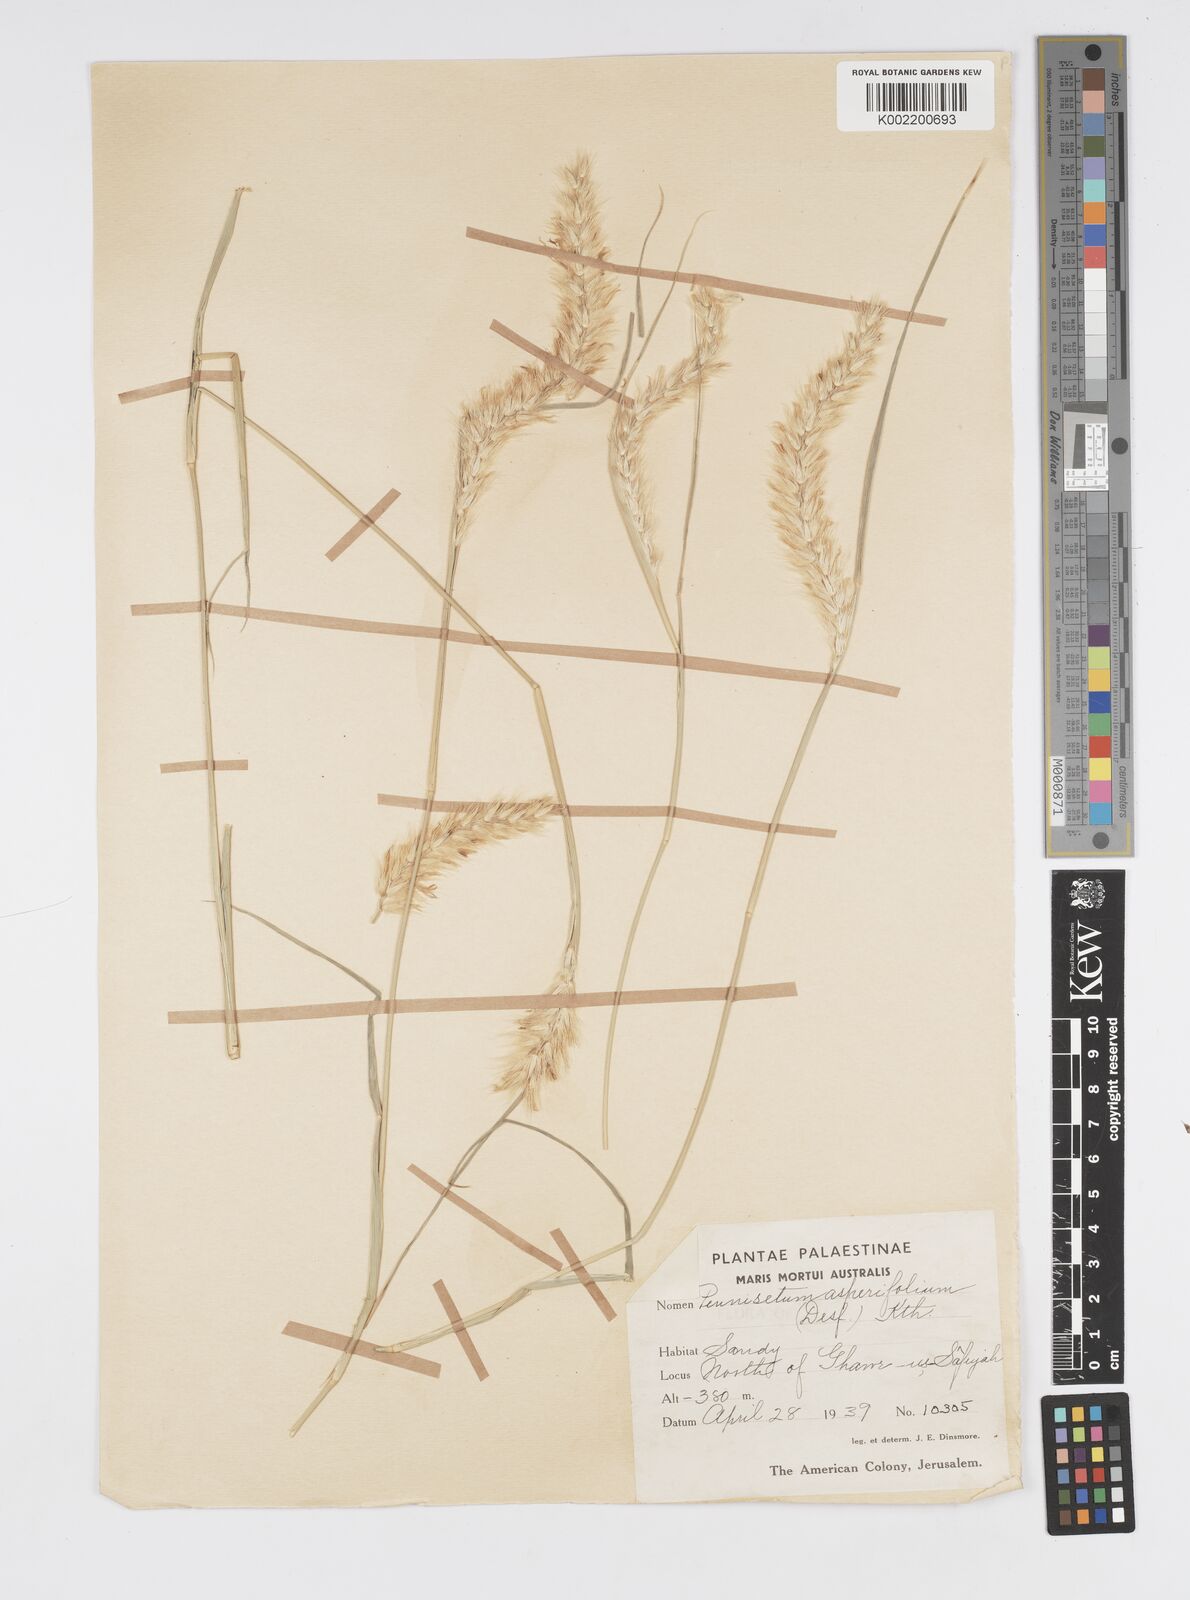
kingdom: Plantae
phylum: Tracheophyta
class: Liliopsida
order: Poales
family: Poaceae
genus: Cenchrus
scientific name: Cenchrus divisus
